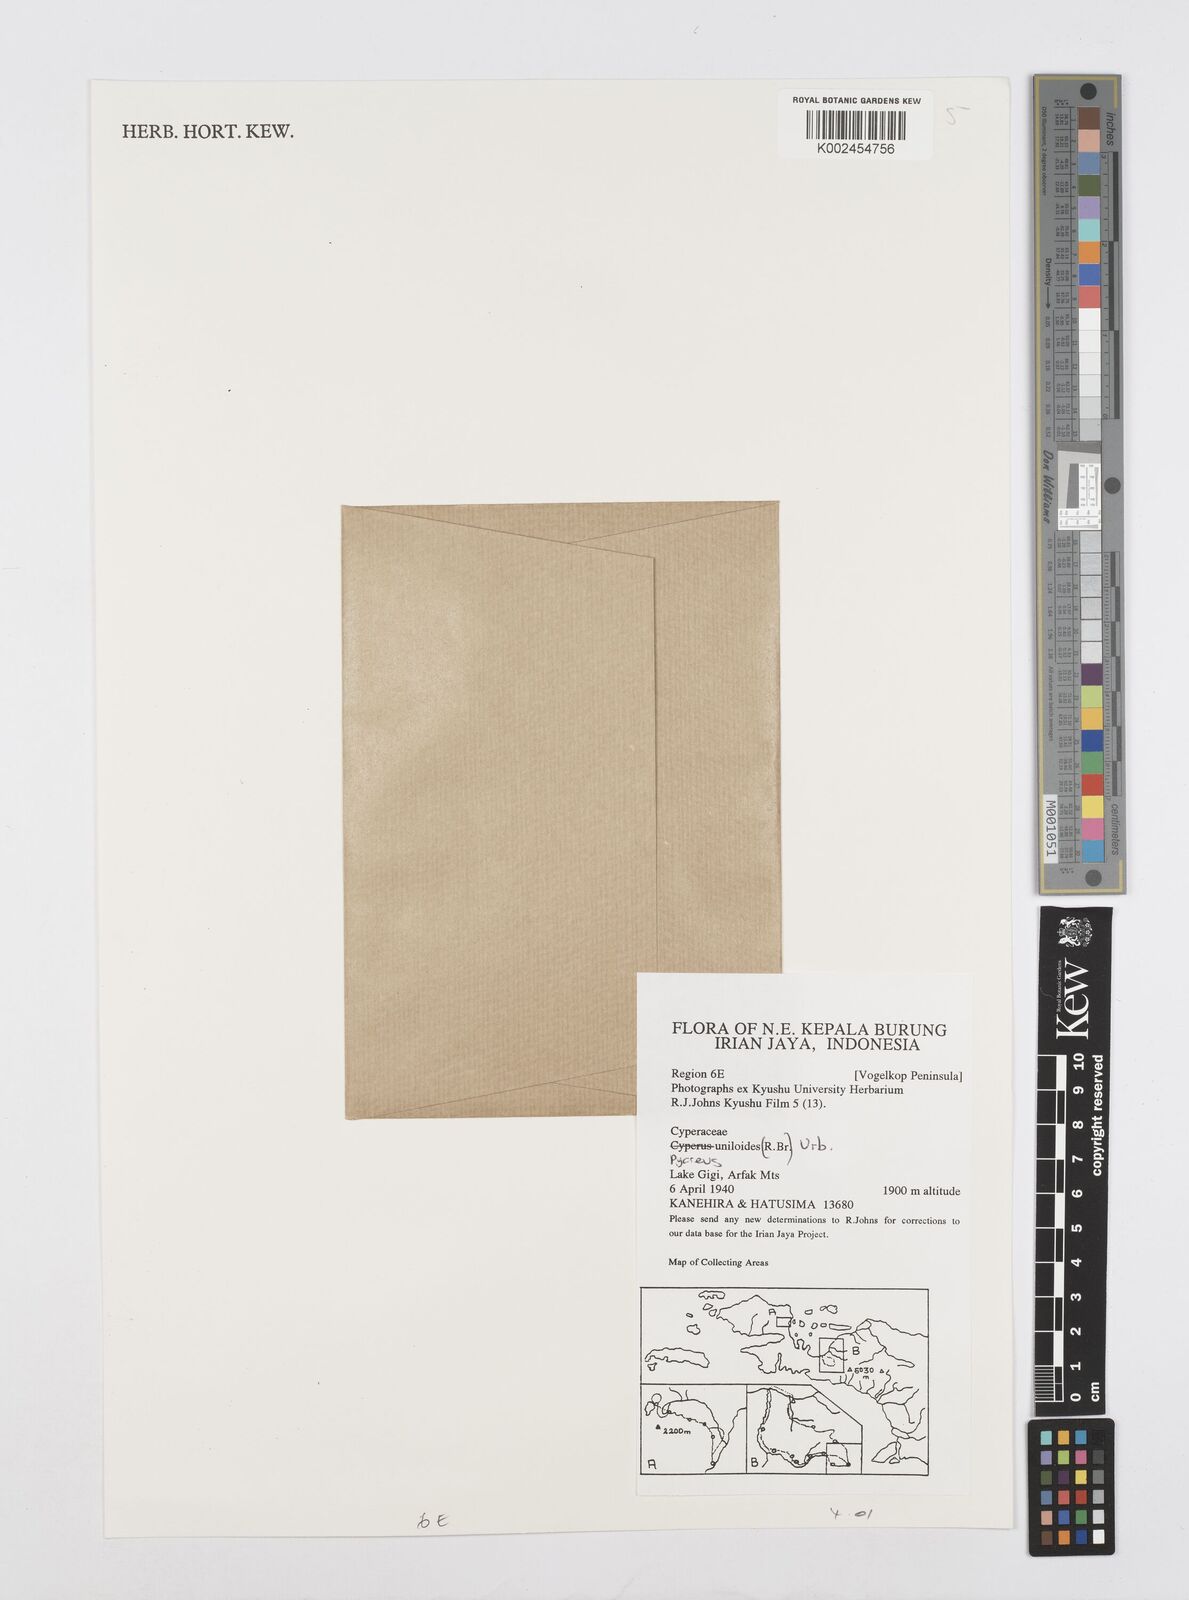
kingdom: Plantae
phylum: Tracheophyta
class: Liliopsida
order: Poales
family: Cyperaceae
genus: Cyperus
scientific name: Cyperus unioloides
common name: Uniola flatsedge
